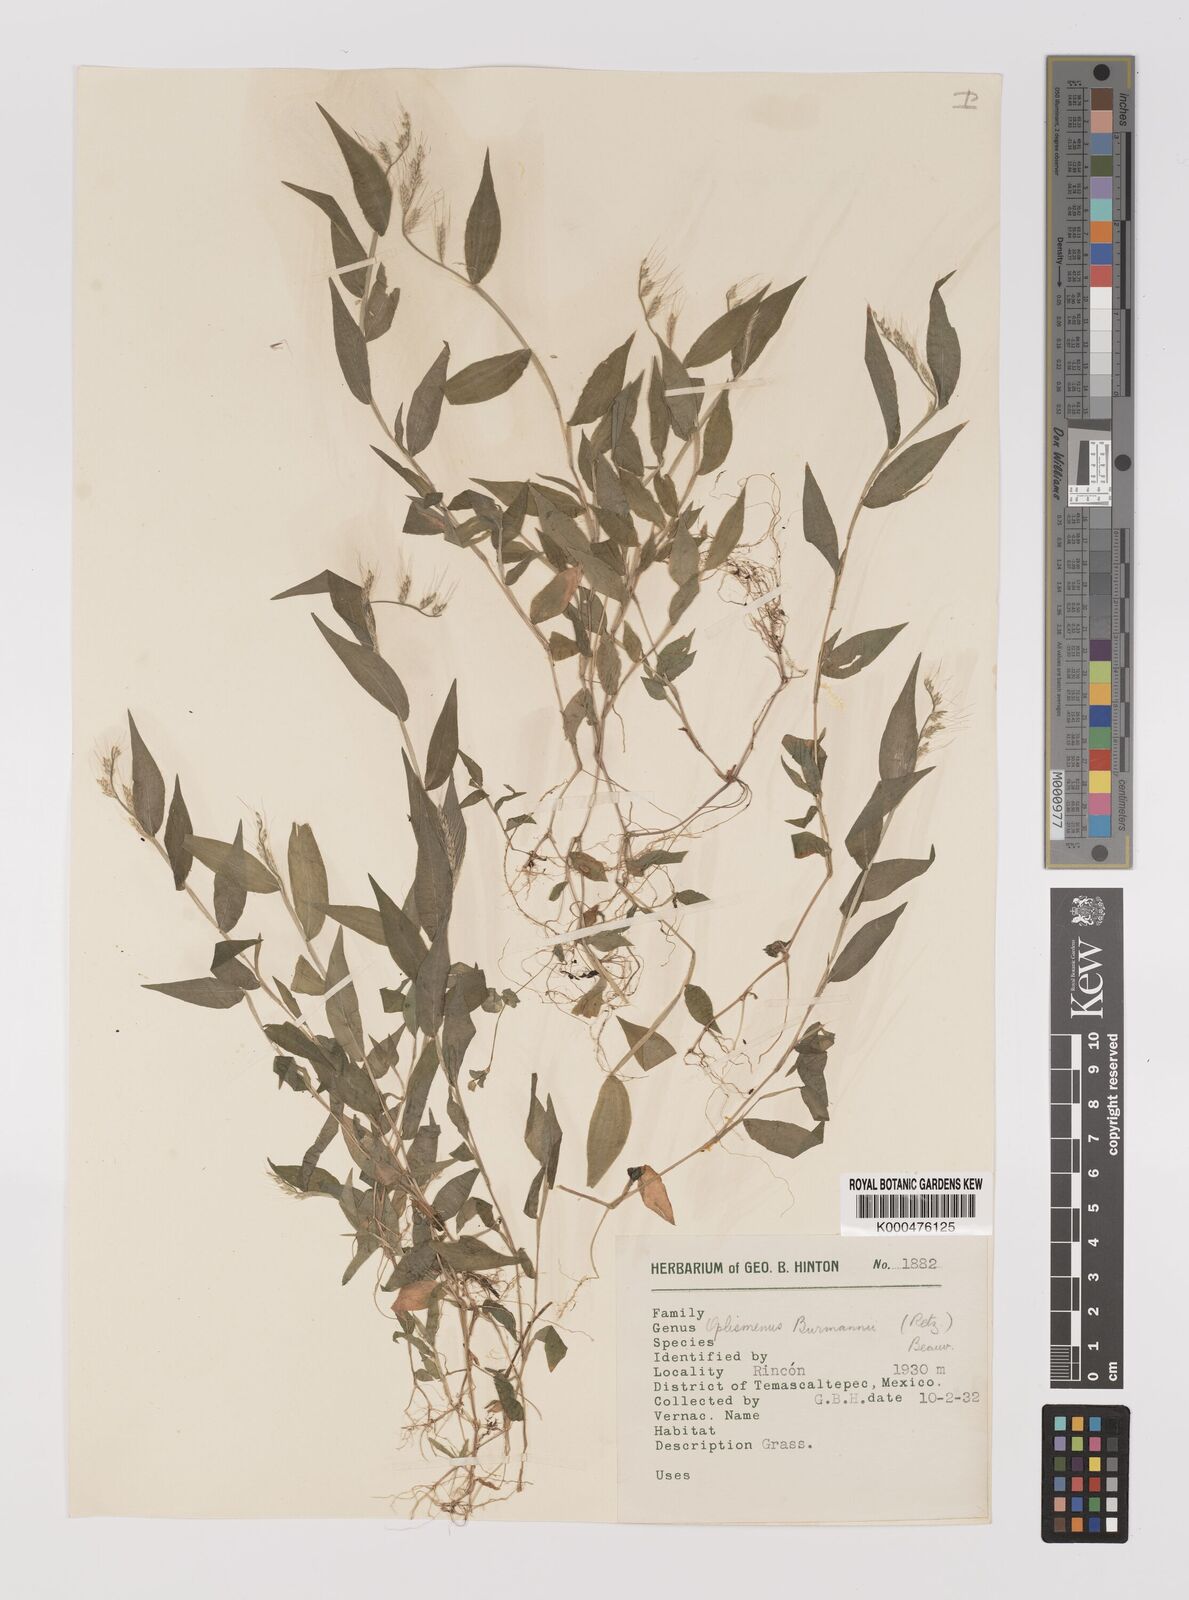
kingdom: Plantae
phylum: Tracheophyta
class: Liliopsida
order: Poales
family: Poaceae
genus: Oplismenus
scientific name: Oplismenus burmanni
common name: Burmann's basketgrass
